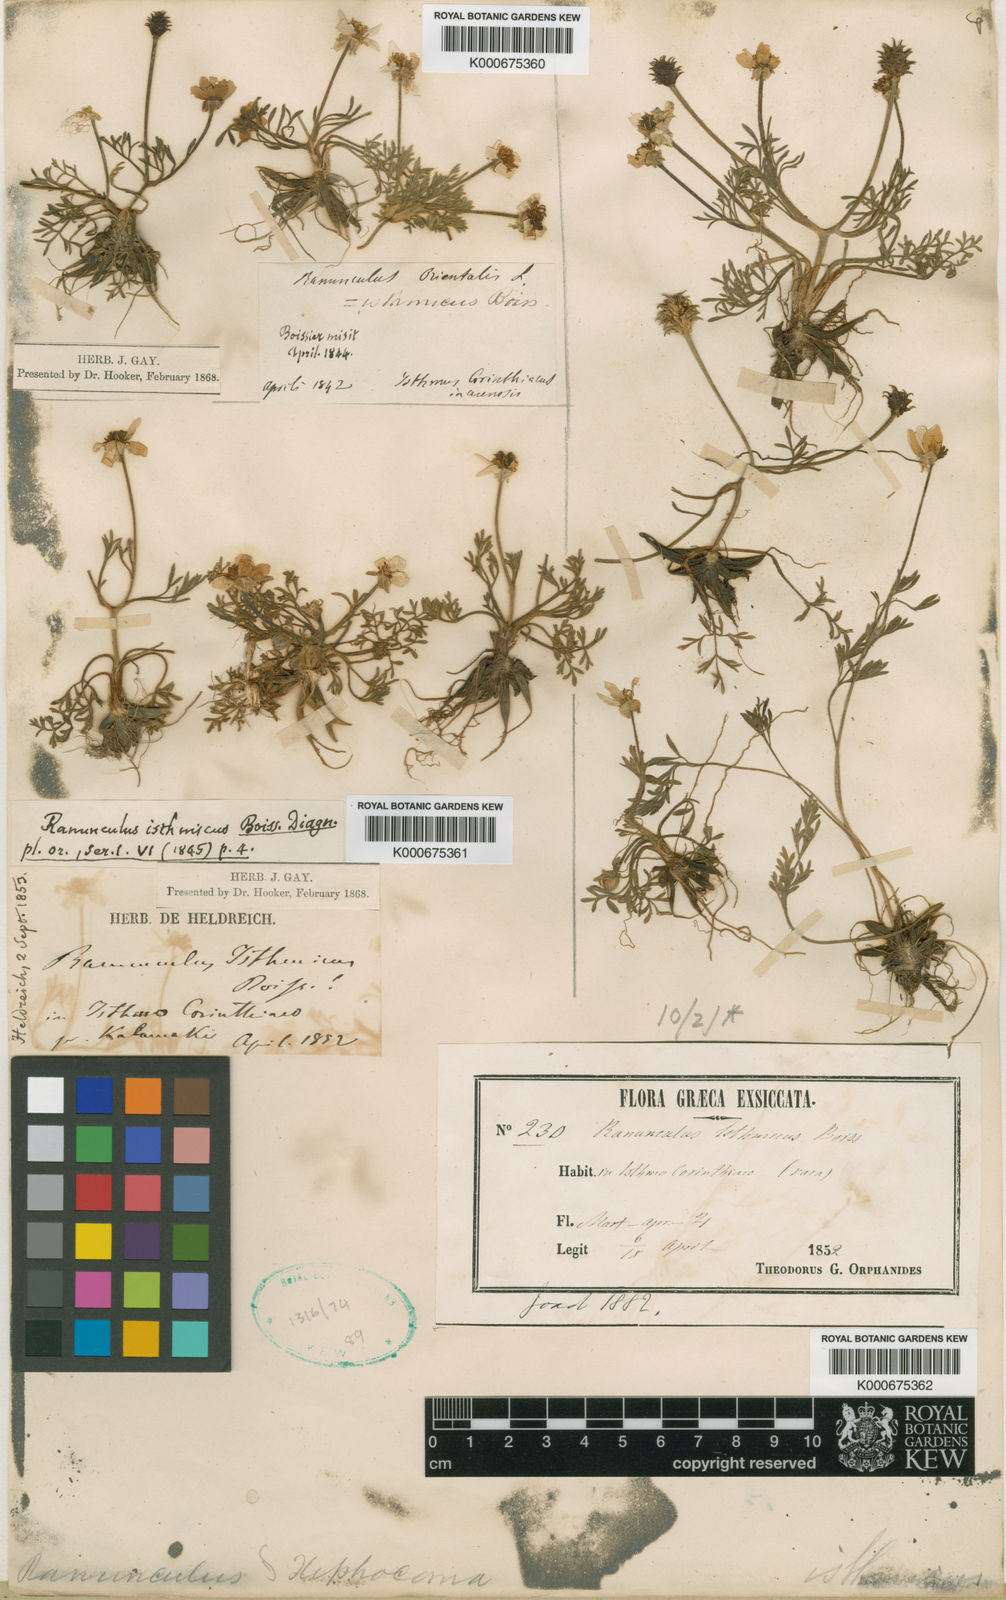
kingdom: Plantae
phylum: Tracheophyta
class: Magnoliopsida
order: Ranunculales
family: Ranunculaceae
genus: Ranunculus
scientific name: Ranunculus isthmicus
